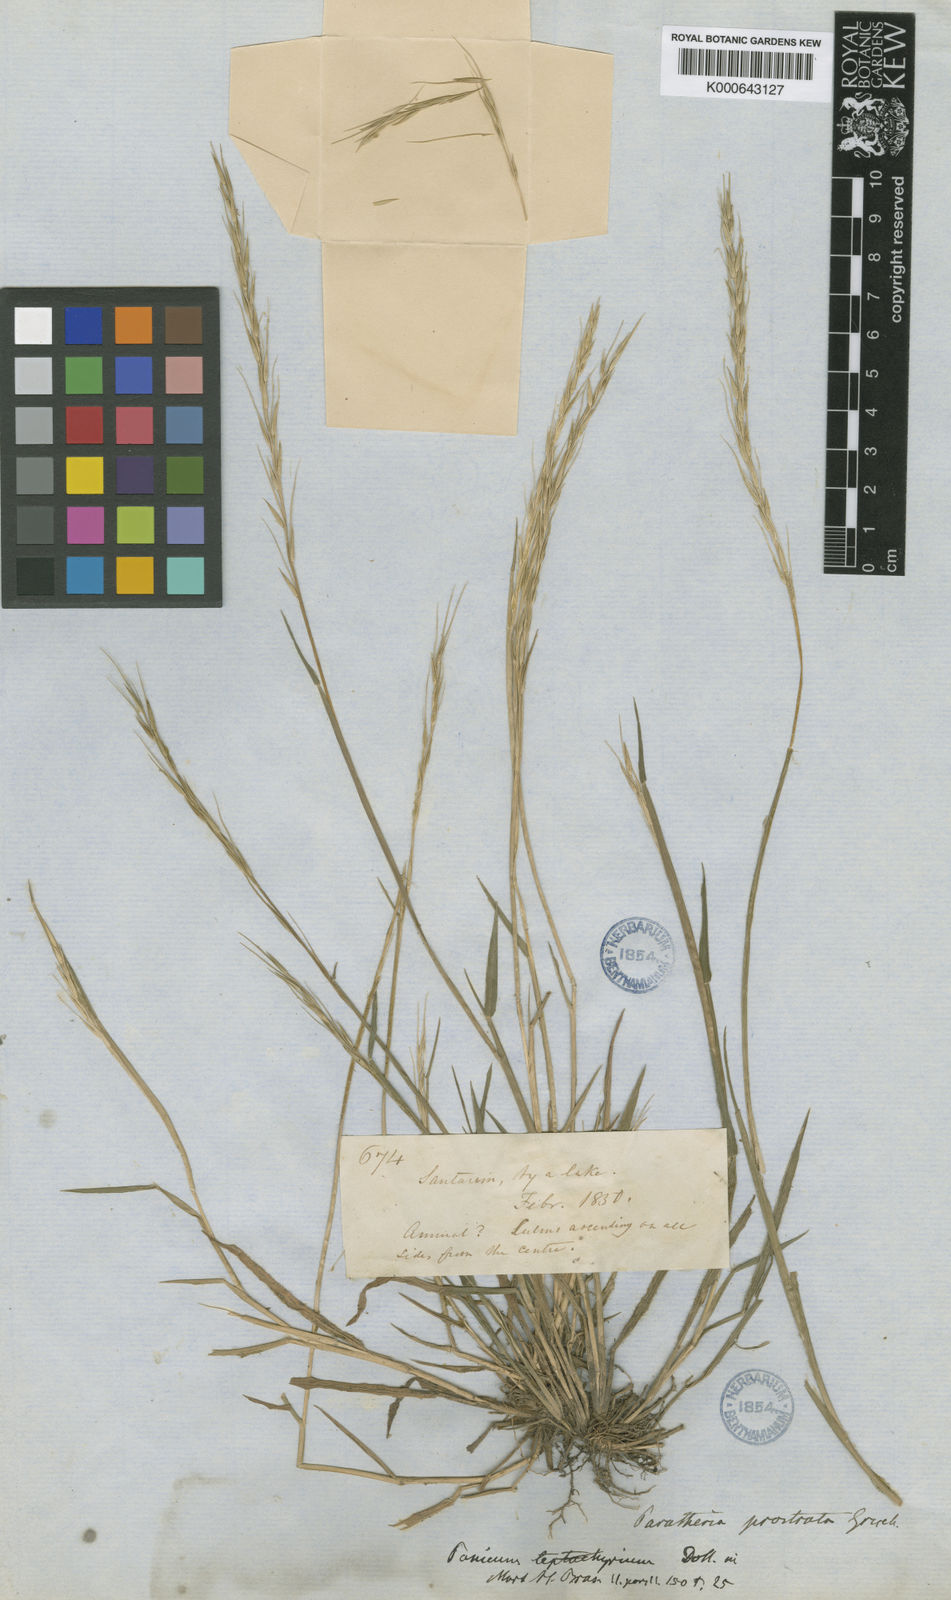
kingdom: Plantae
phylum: Tracheophyta
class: Liliopsida
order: Poales
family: Poaceae
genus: Paratheria
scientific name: Paratheria prostrata
